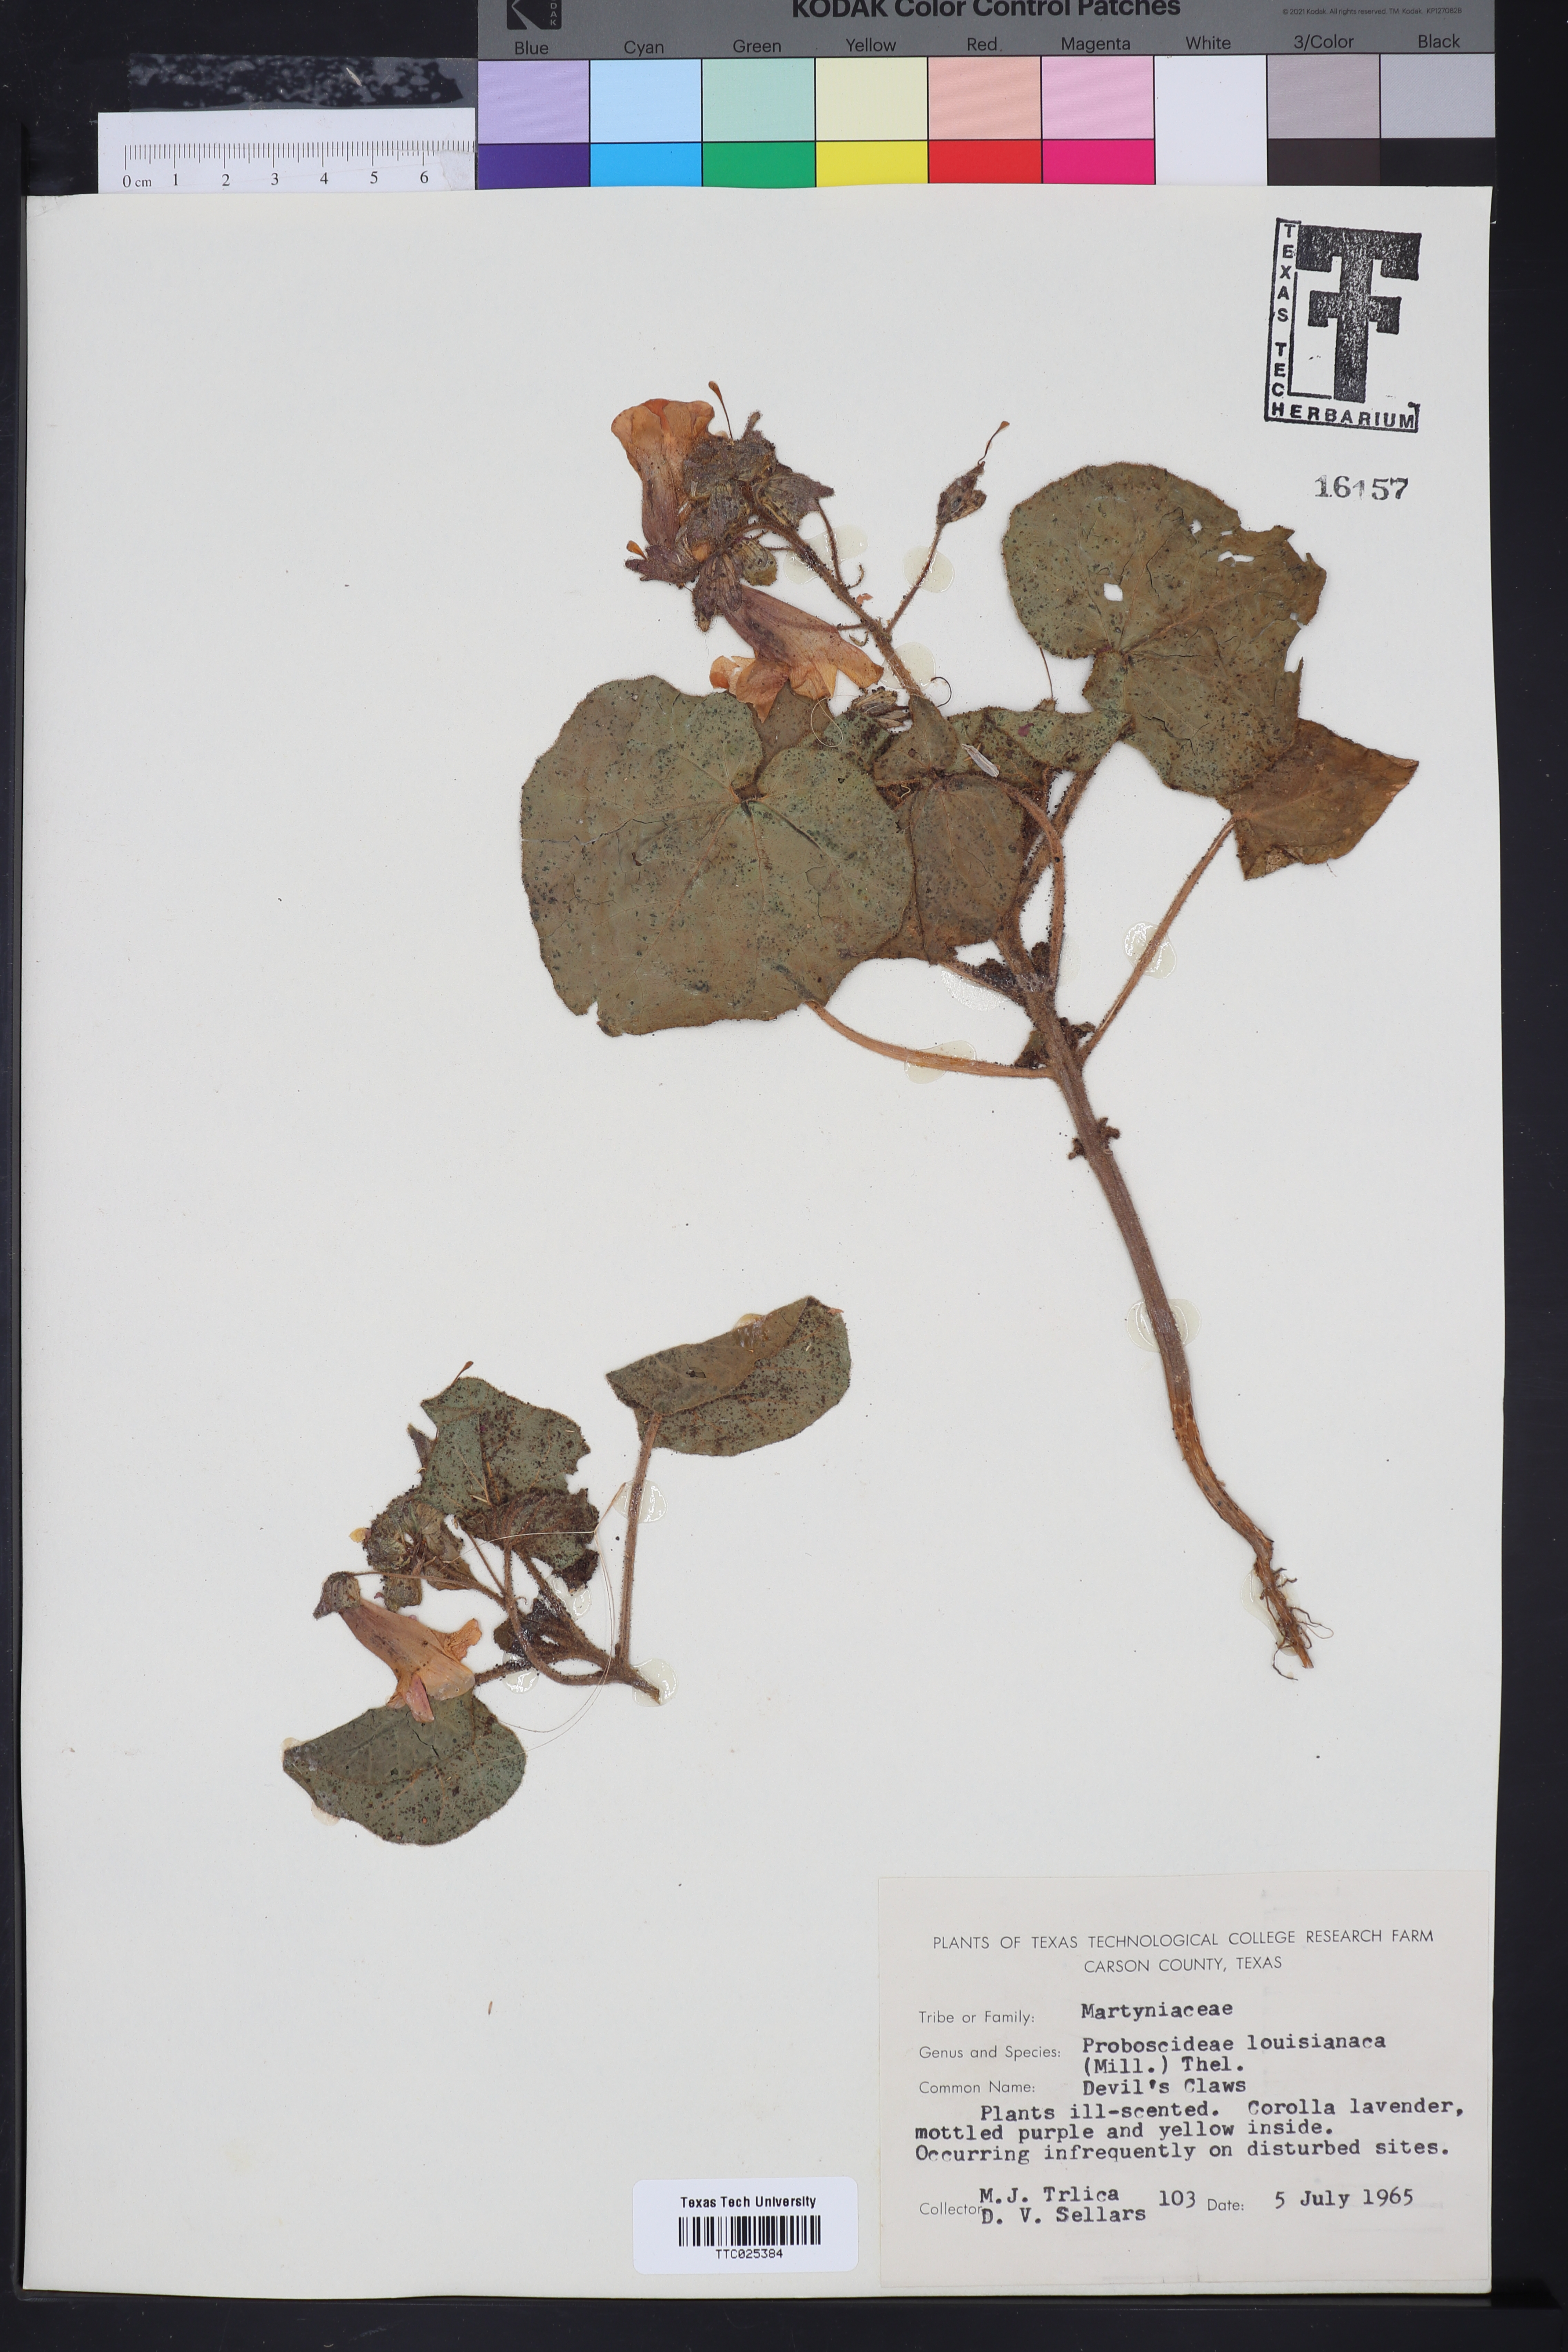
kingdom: Plantae
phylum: Tracheophyta
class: Magnoliopsida
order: Lamiales
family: Martyniaceae
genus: Proboscidea
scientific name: Proboscidea louisianica
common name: Elephant tusks
